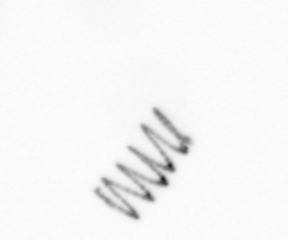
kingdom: Chromista
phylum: Ochrophyta
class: Bacillariophyceae
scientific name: Bacillariophyceae
